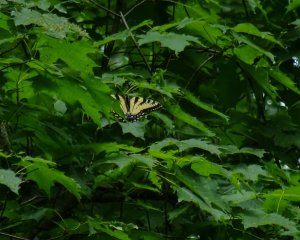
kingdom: Animalia
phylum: Arthropoda
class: Insecta
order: Lepidoptera
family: Papilionidae
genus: Pterourus
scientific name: Pterourus glaucus
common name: Eastern Tiger Swallowtail
